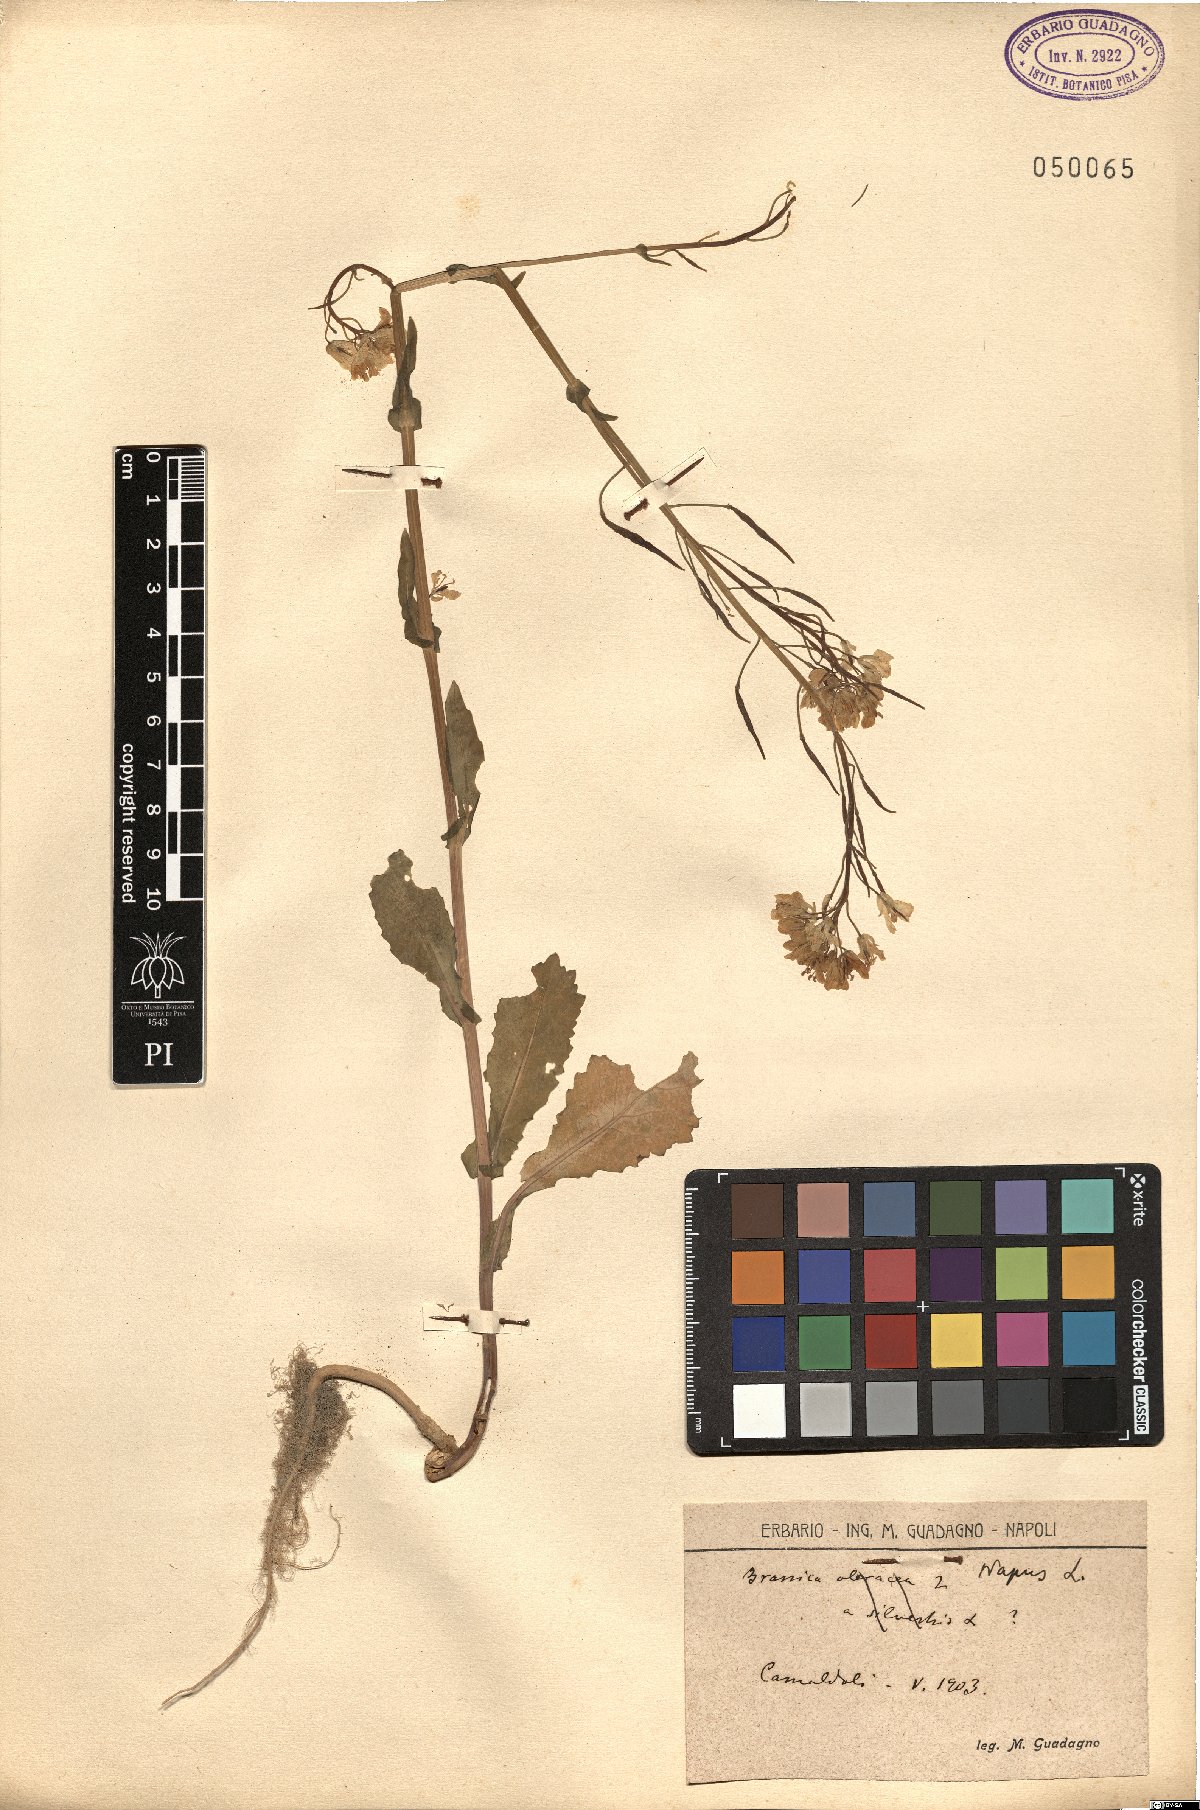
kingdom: Plantae
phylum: Tracheophyta
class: Magnoliopsida
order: Brassicales
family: Brassicaceae
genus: Brassica
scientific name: Brassica napus
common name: Rape
